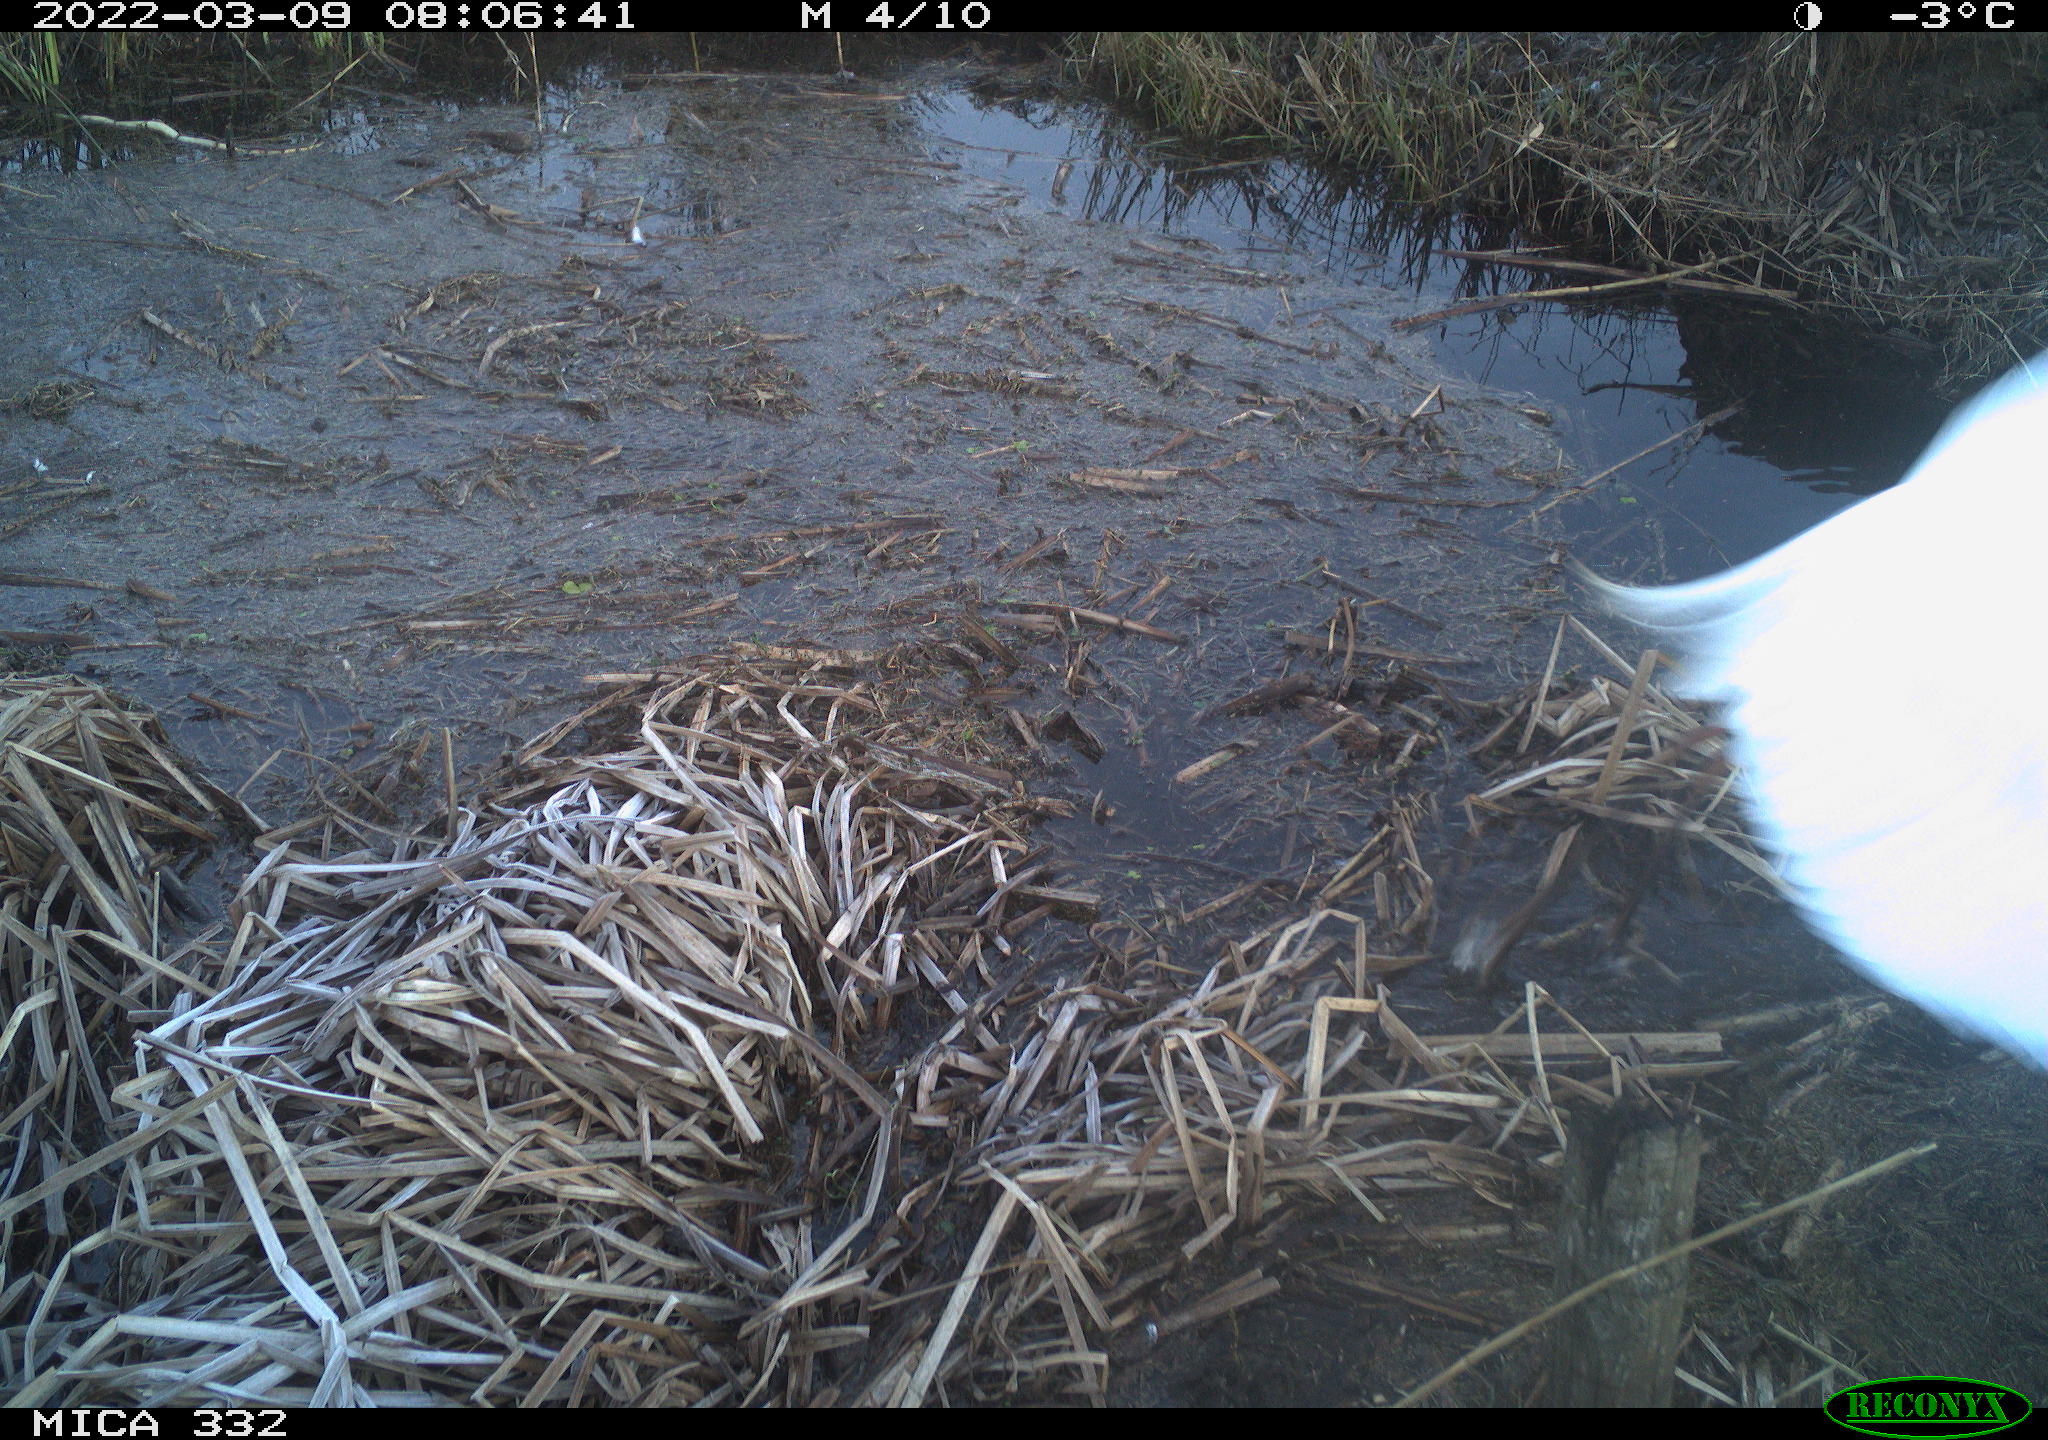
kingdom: Animalia
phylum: Chordata
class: Aves
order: Pelecaniformes
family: Ardeidae
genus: Ardea
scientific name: Ardea alba
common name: Great egret
